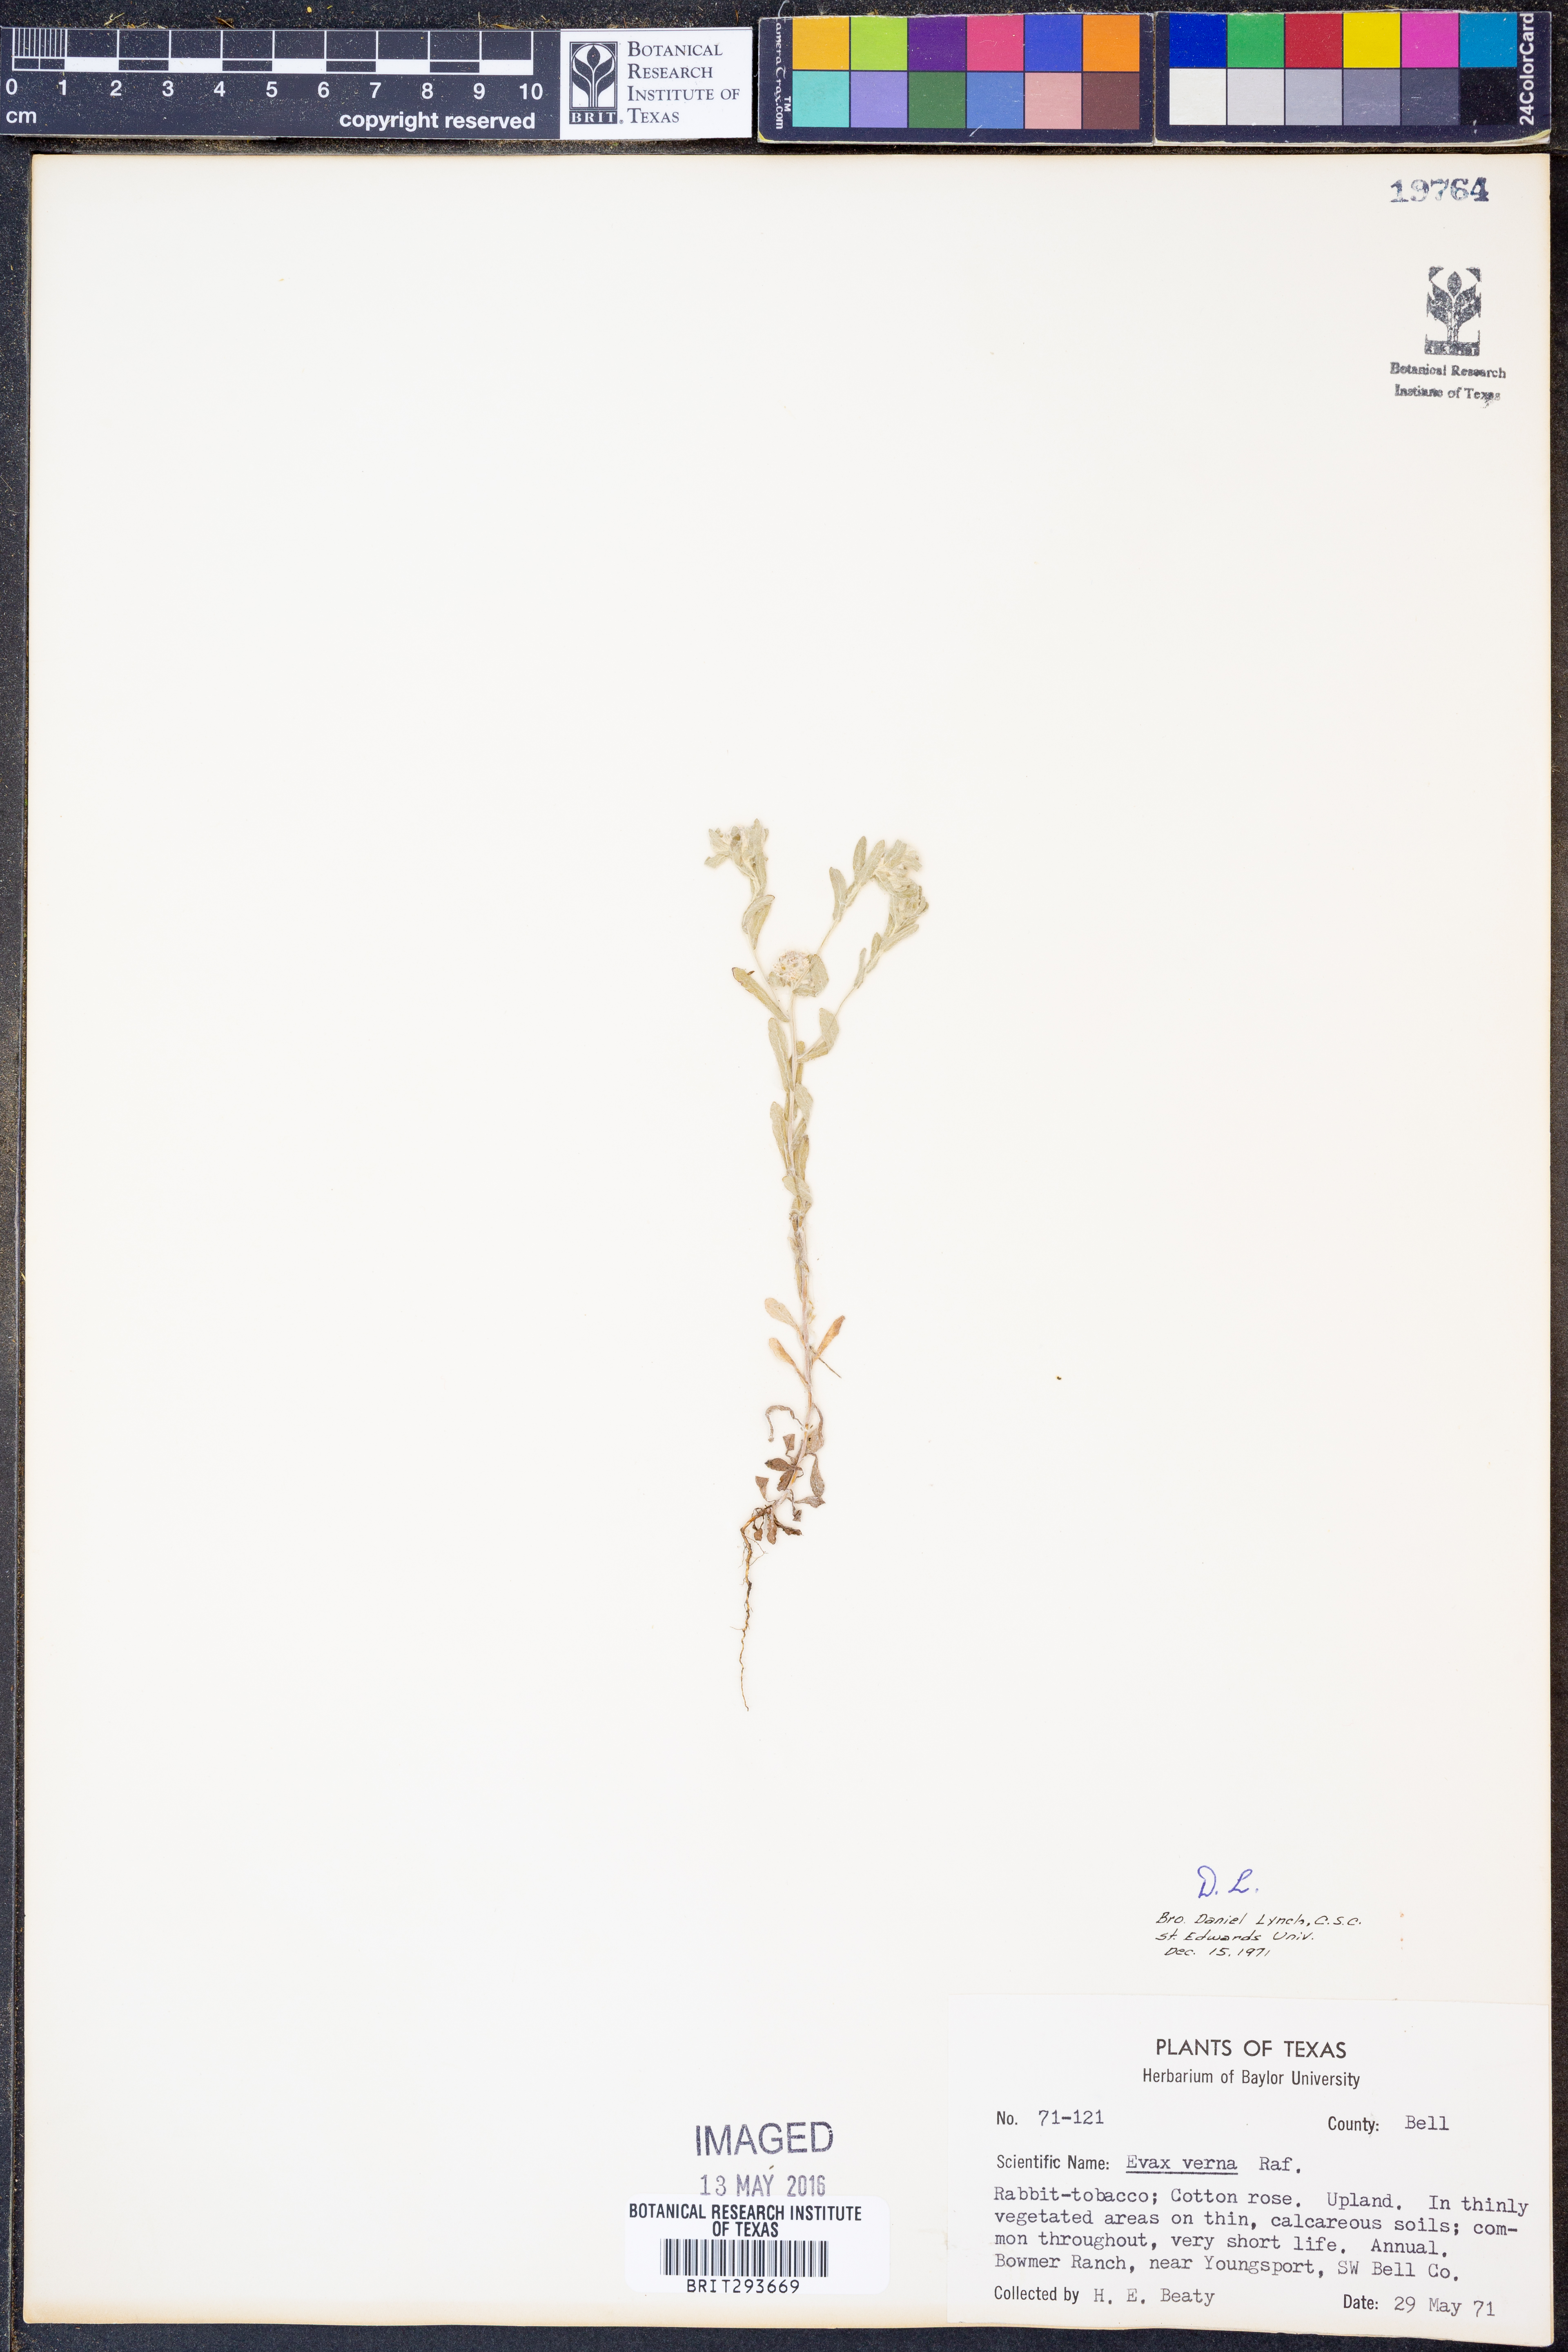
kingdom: Plantae
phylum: Tracheophyta
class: Magnoliopsida
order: Asterales
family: Asteraceae
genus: Diaperia
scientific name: Diaperia verna
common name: Many-stem rabbit-tobacco
